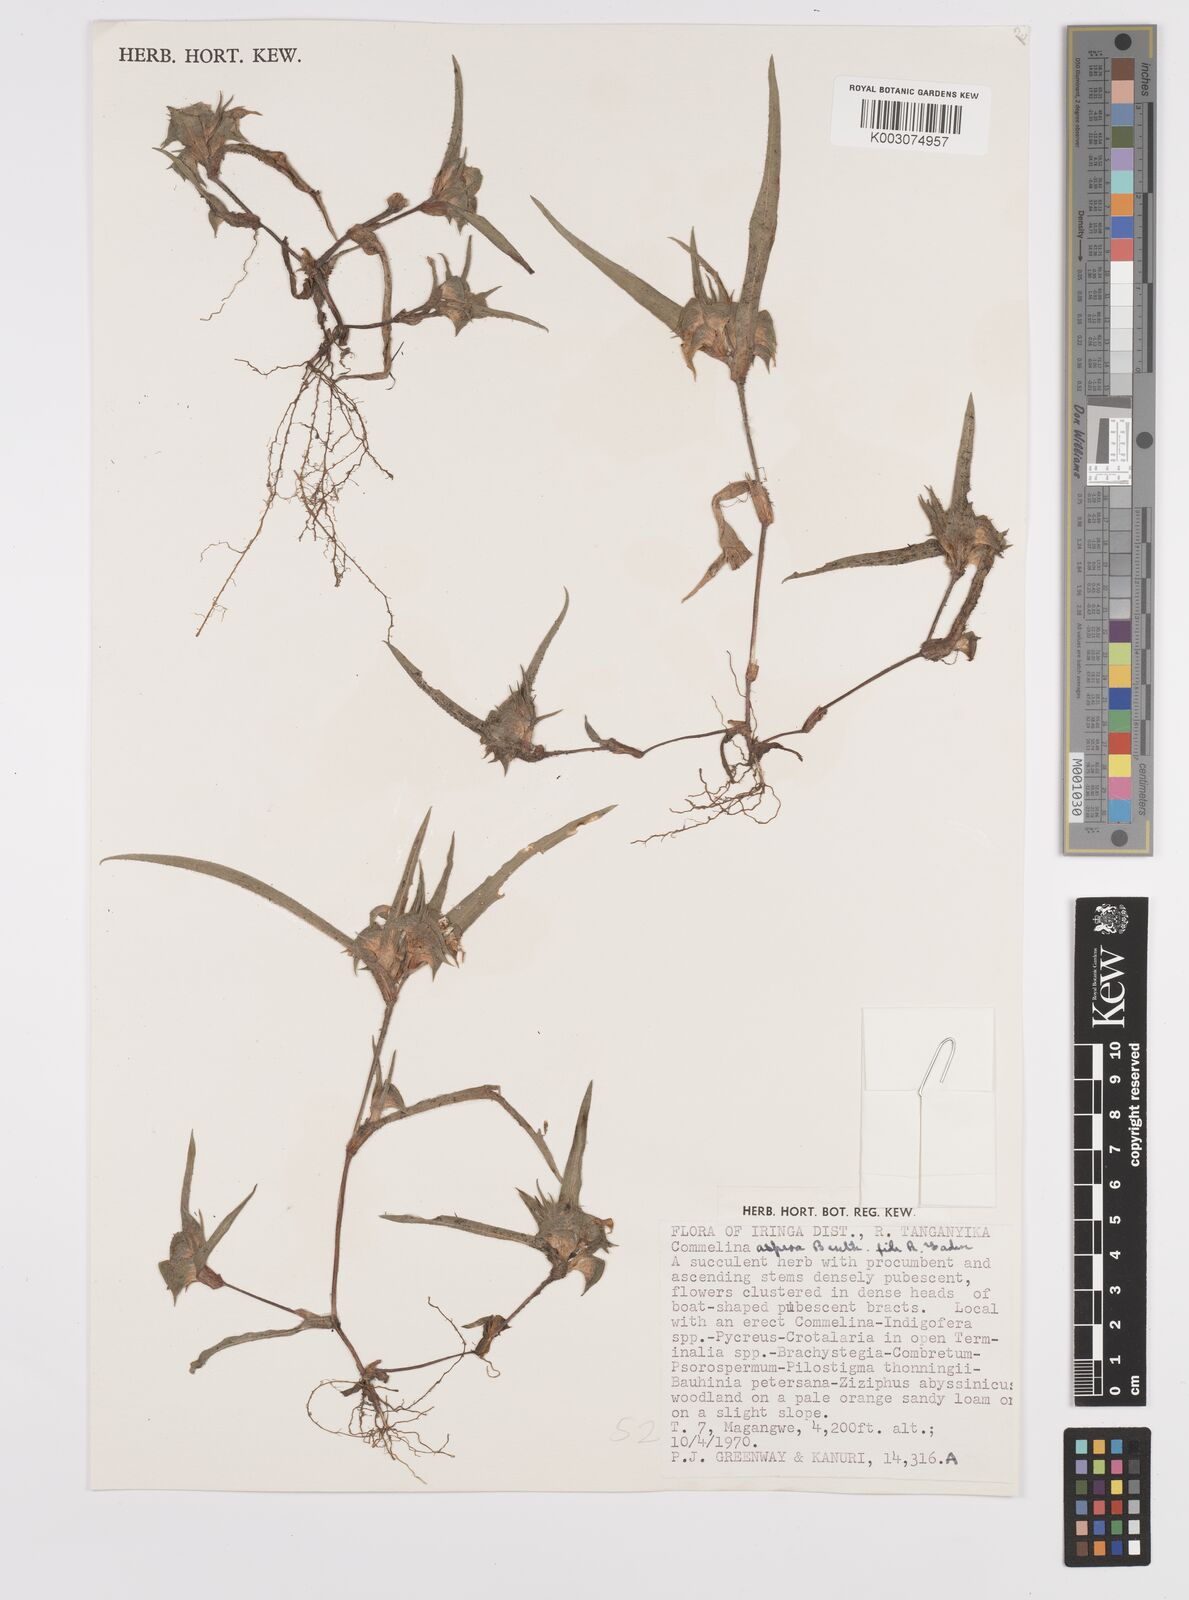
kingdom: Plantae
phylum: Tracheophyta
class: Liliopsida
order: Commelinales
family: Commelinaceae
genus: Commelina
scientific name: Commelina aspera
